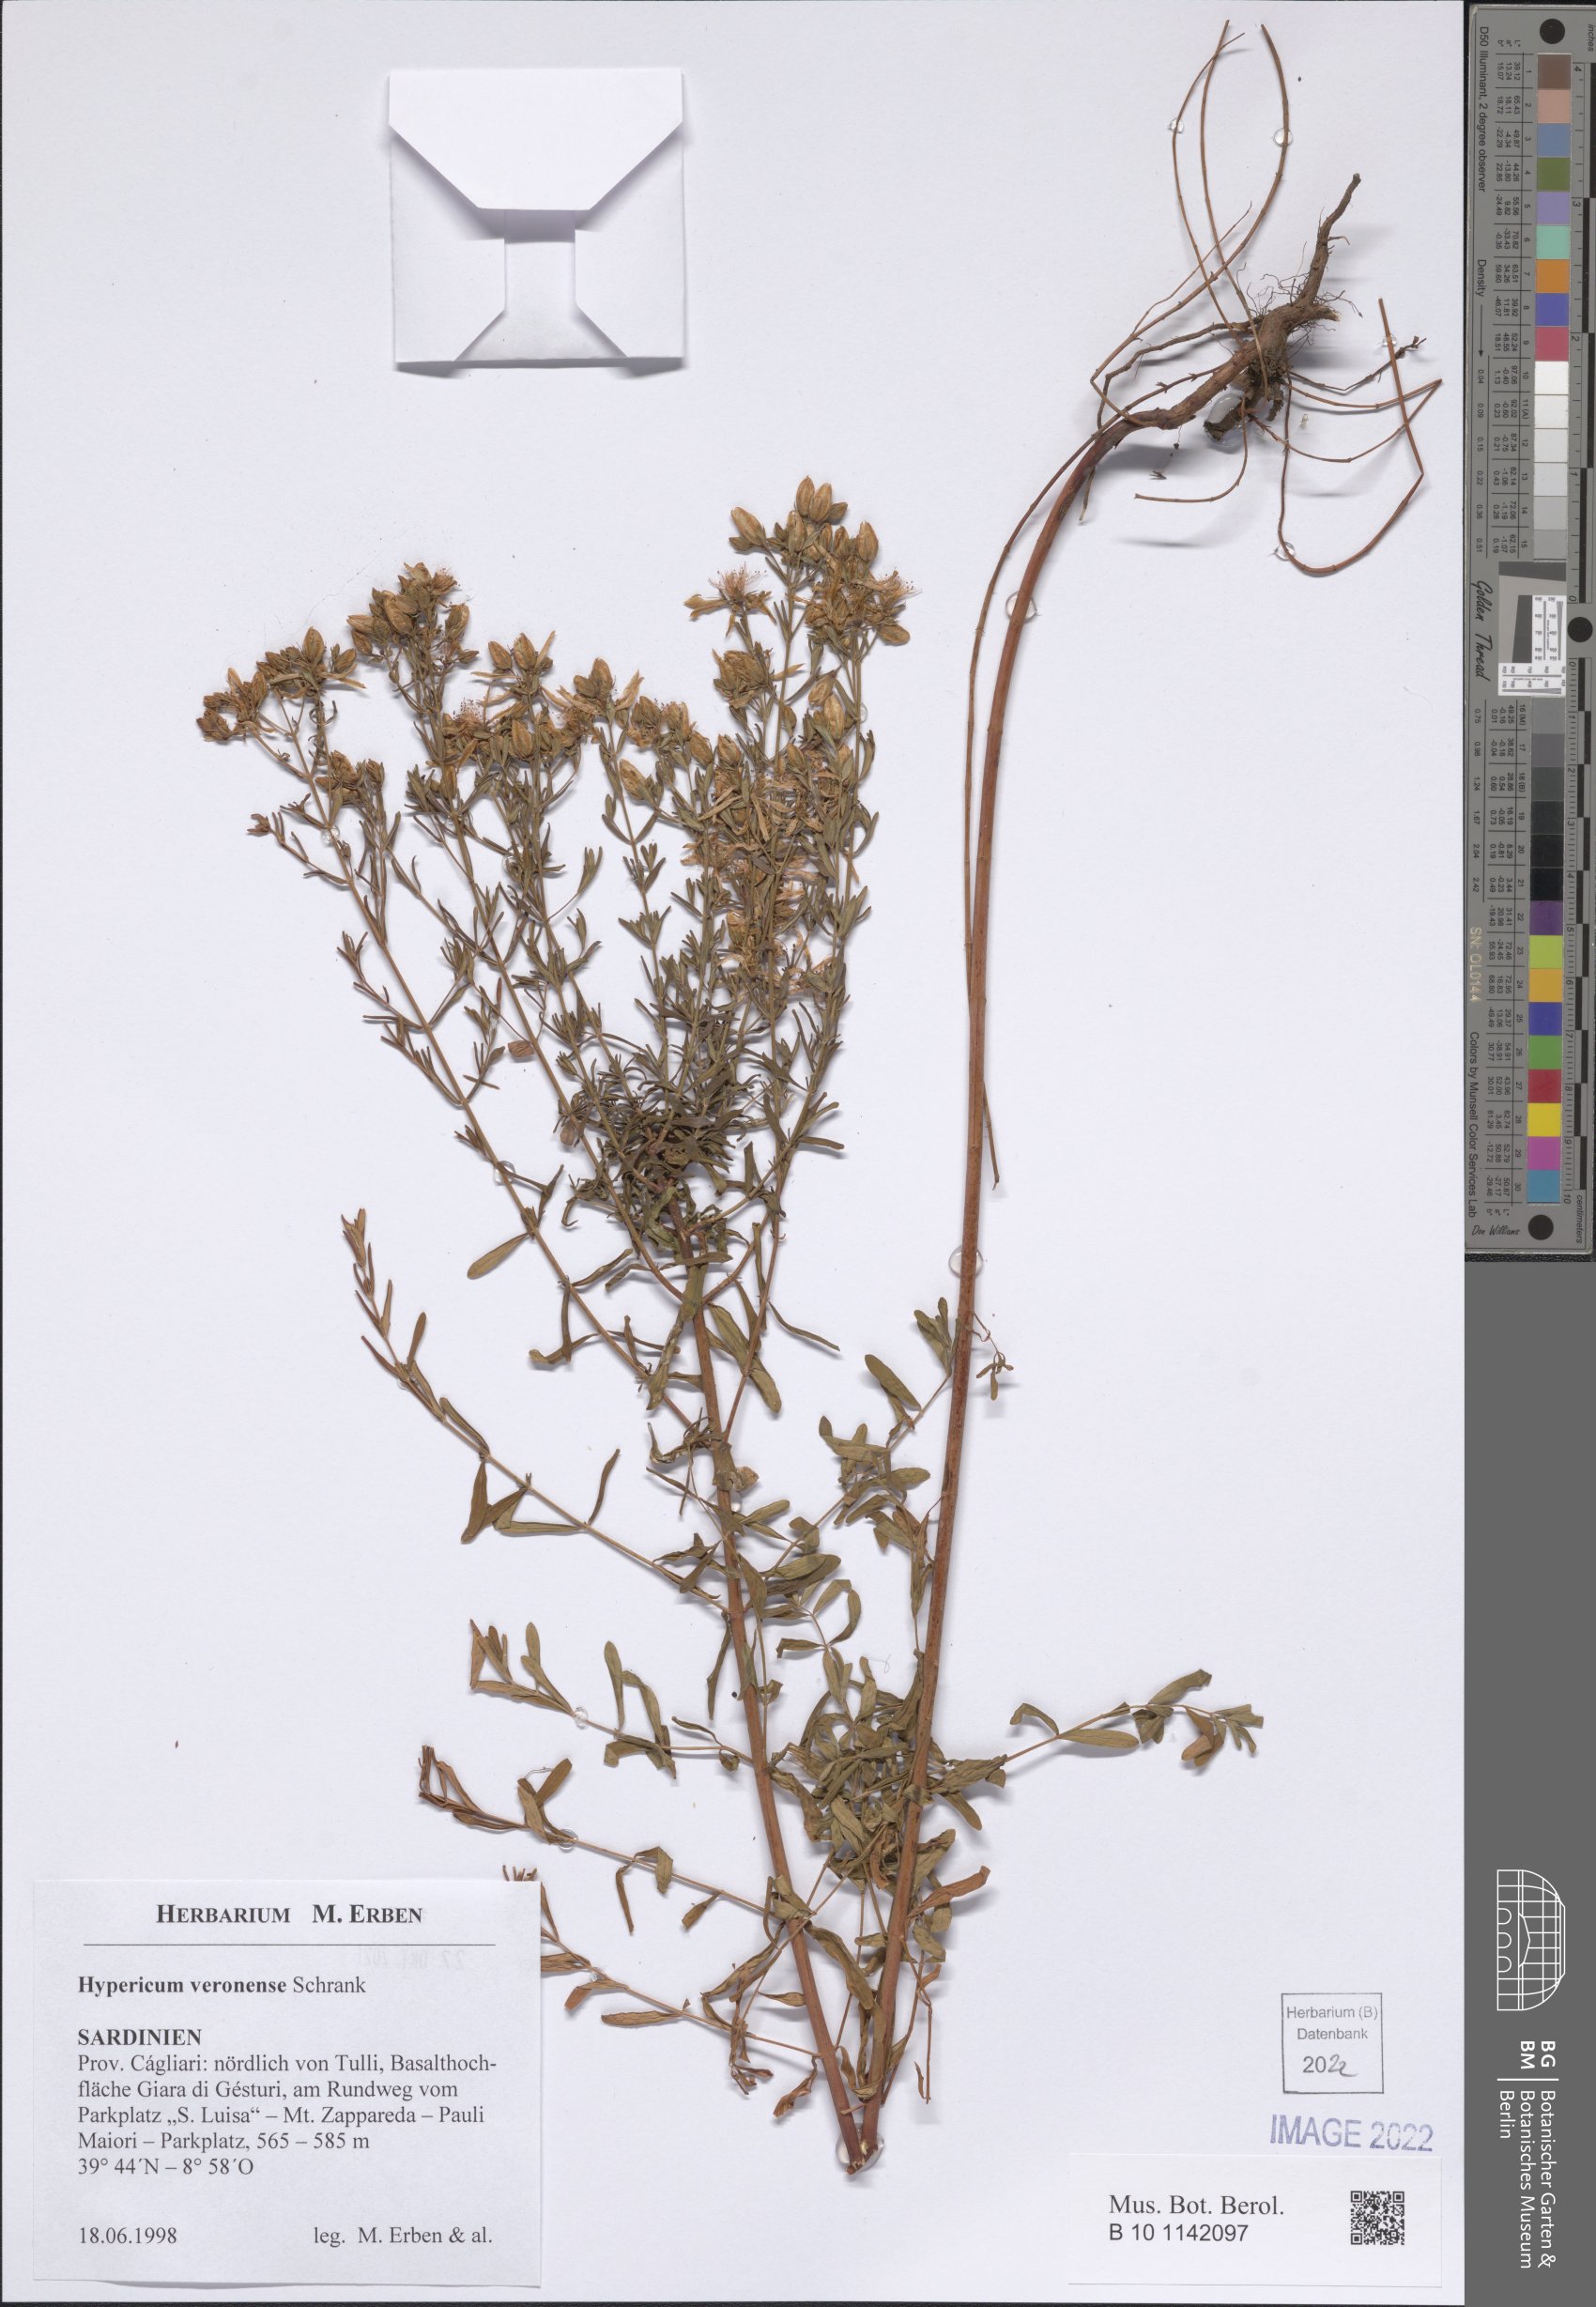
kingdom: Plantae
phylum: Tracheophyta
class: Magnoliopsida
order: Malpighiales
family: Hypericaceae
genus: Hypericum
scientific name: Hypericum veronense
